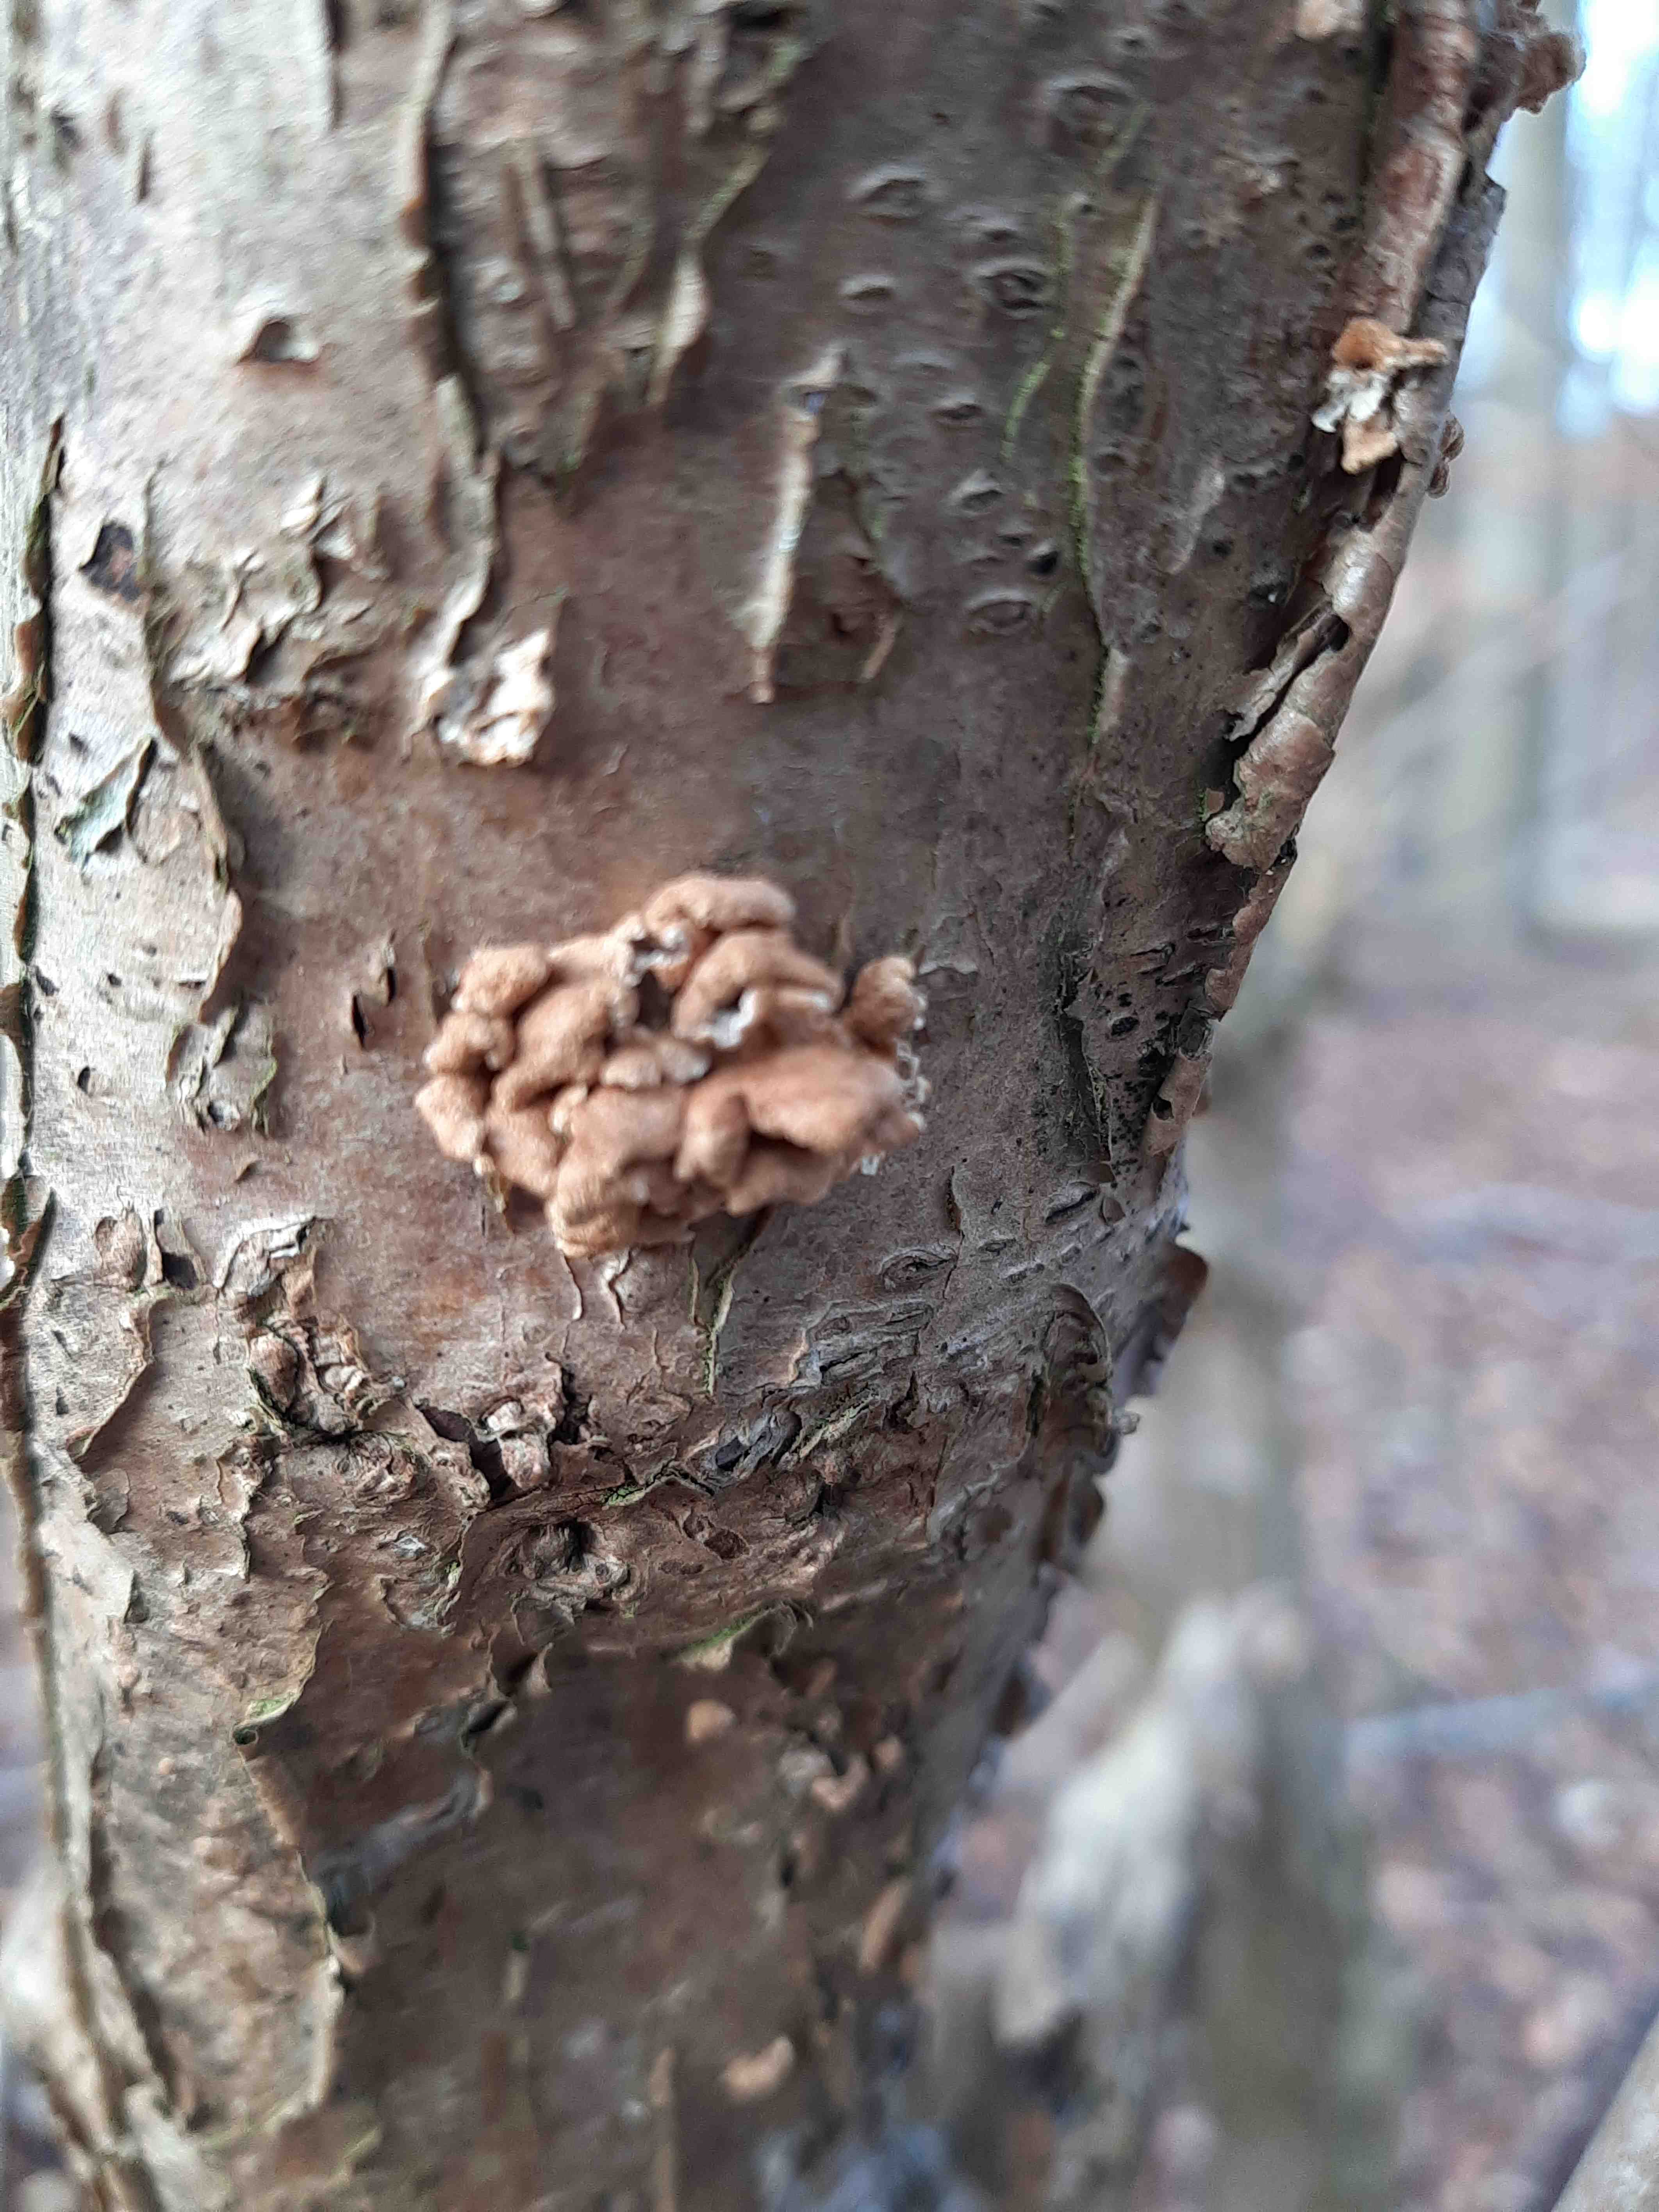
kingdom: Fungi
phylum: Basidiomycota
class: Agaricomycetes
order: Amylocorticiales
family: Amylocorticiaceae
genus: Plicaturopsis
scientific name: Plicaturopsis crispa
